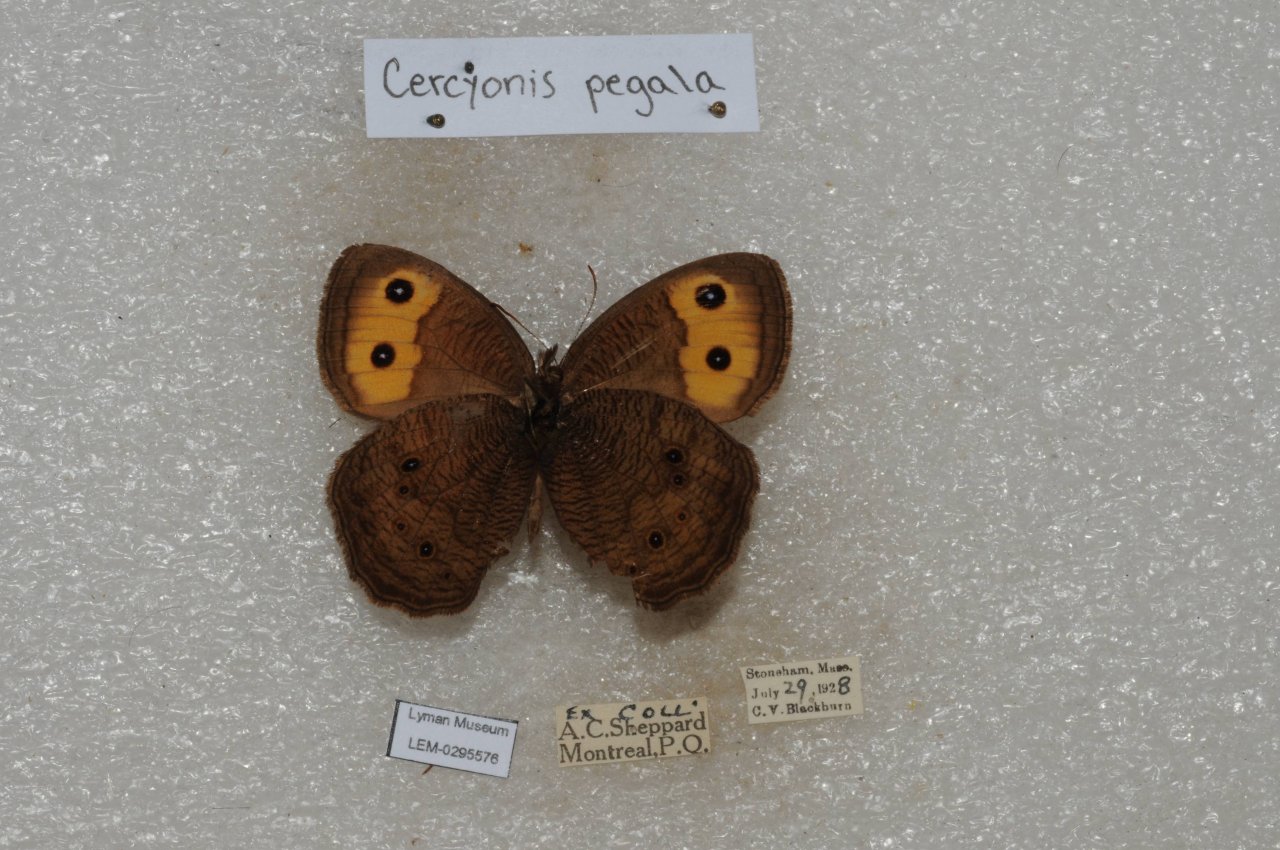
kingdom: Animalia
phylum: Arthropoda
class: Insecta
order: Lepidoptera
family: Nymphalidae
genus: Cercyonis
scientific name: Cercyonis pegala
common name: Common Wood-Nymph
